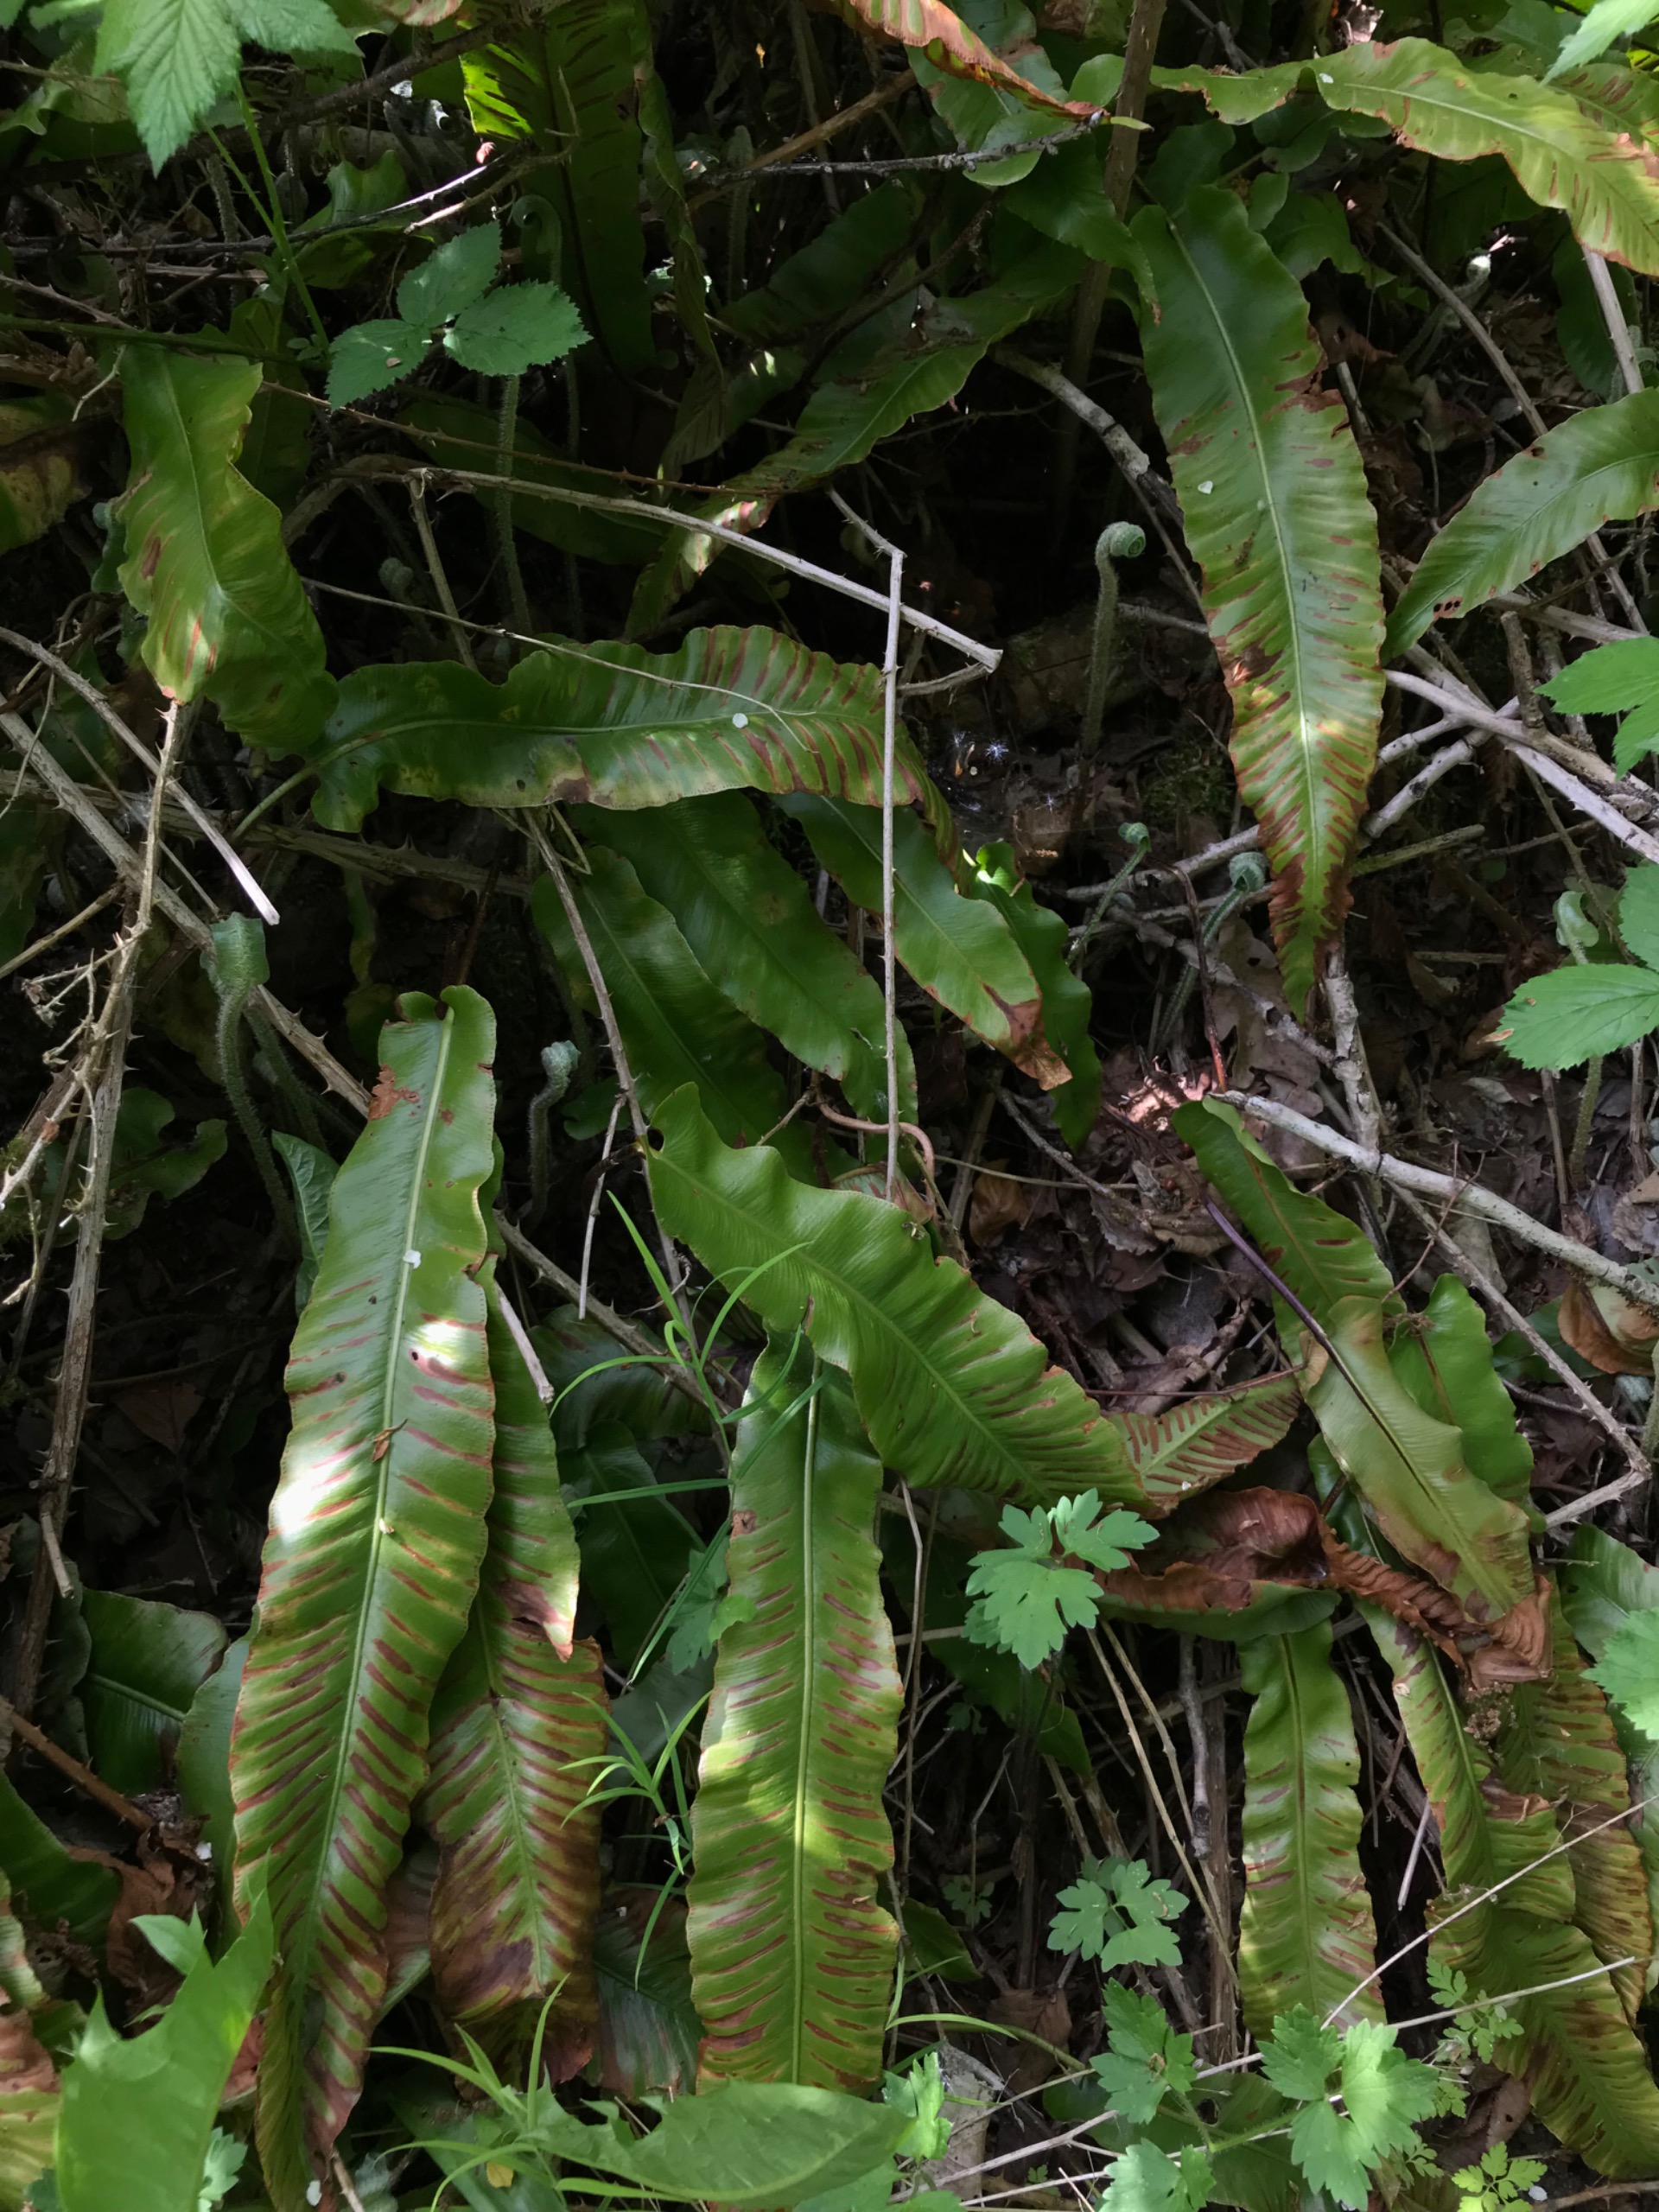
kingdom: Plantae
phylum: Tracheophyta
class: Polypodiopsida
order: Polypodiales
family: Aspleniaceae
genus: Asplenium
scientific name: Asplenium scolopendrium
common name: Hjortetunge
